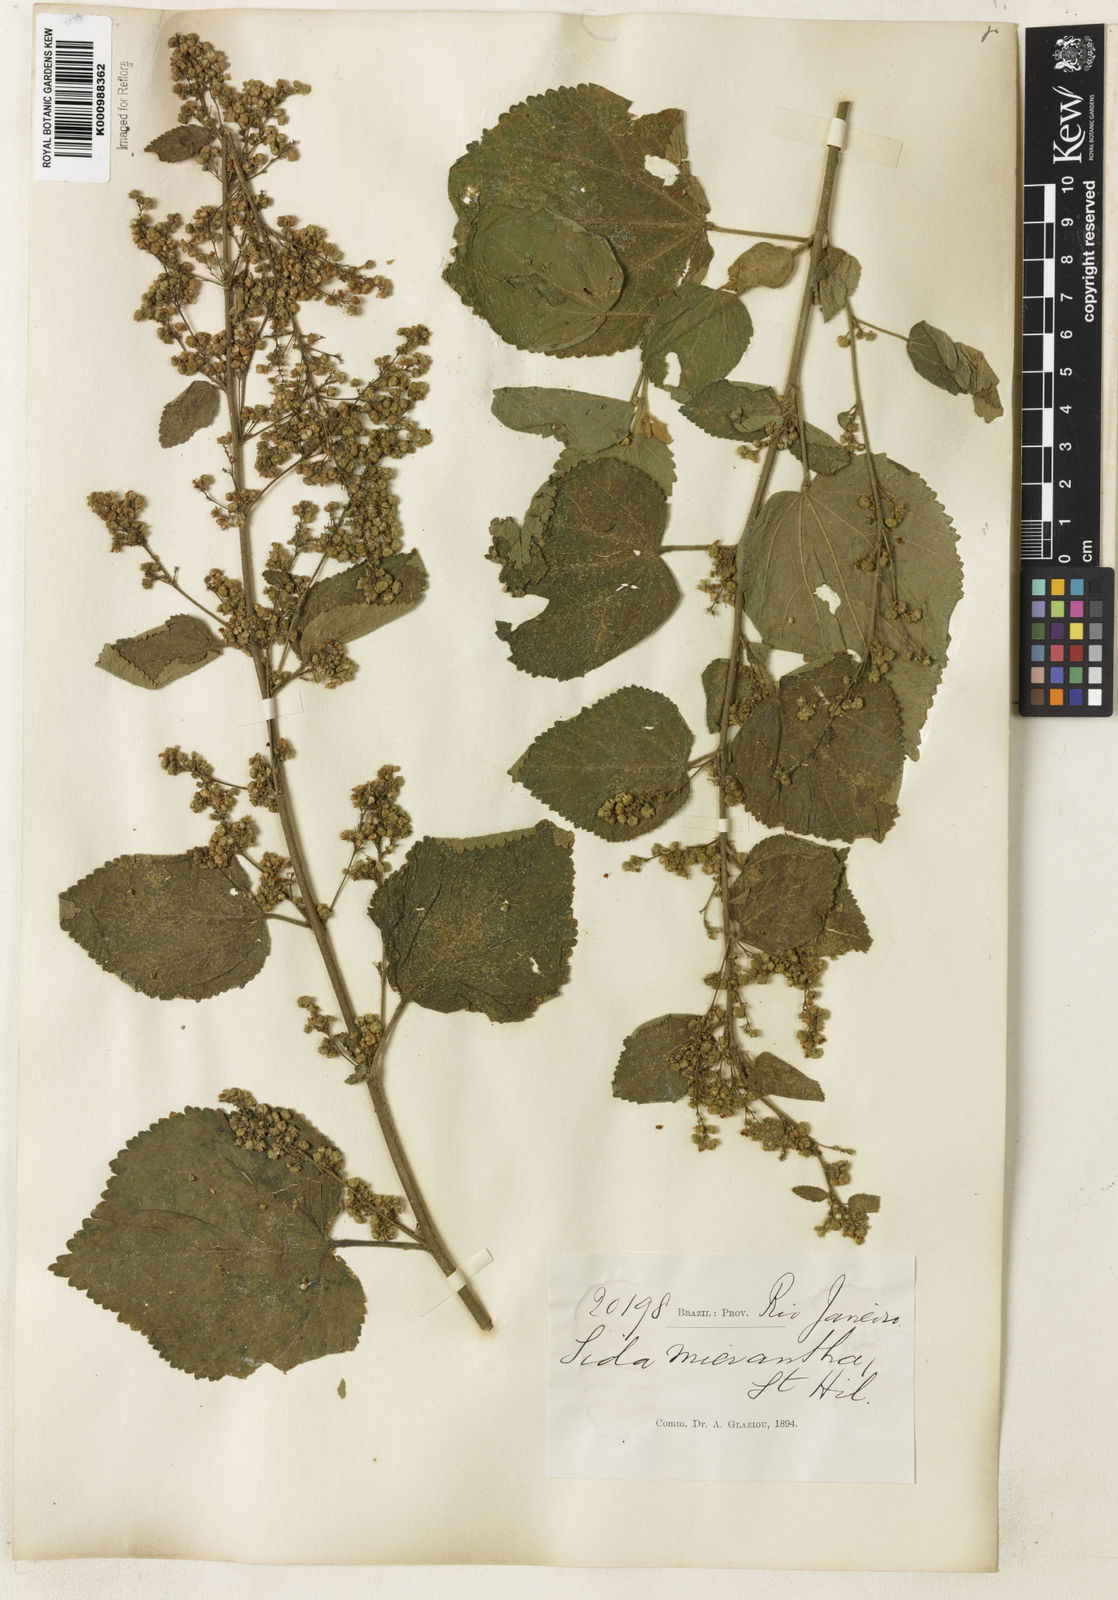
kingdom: Plantae
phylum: Tracheophyta
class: Magnoliopsida
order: Malvales
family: Malvaceae
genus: Sidastrum
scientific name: Sidastrum micranthum
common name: Dainty sandmallow
